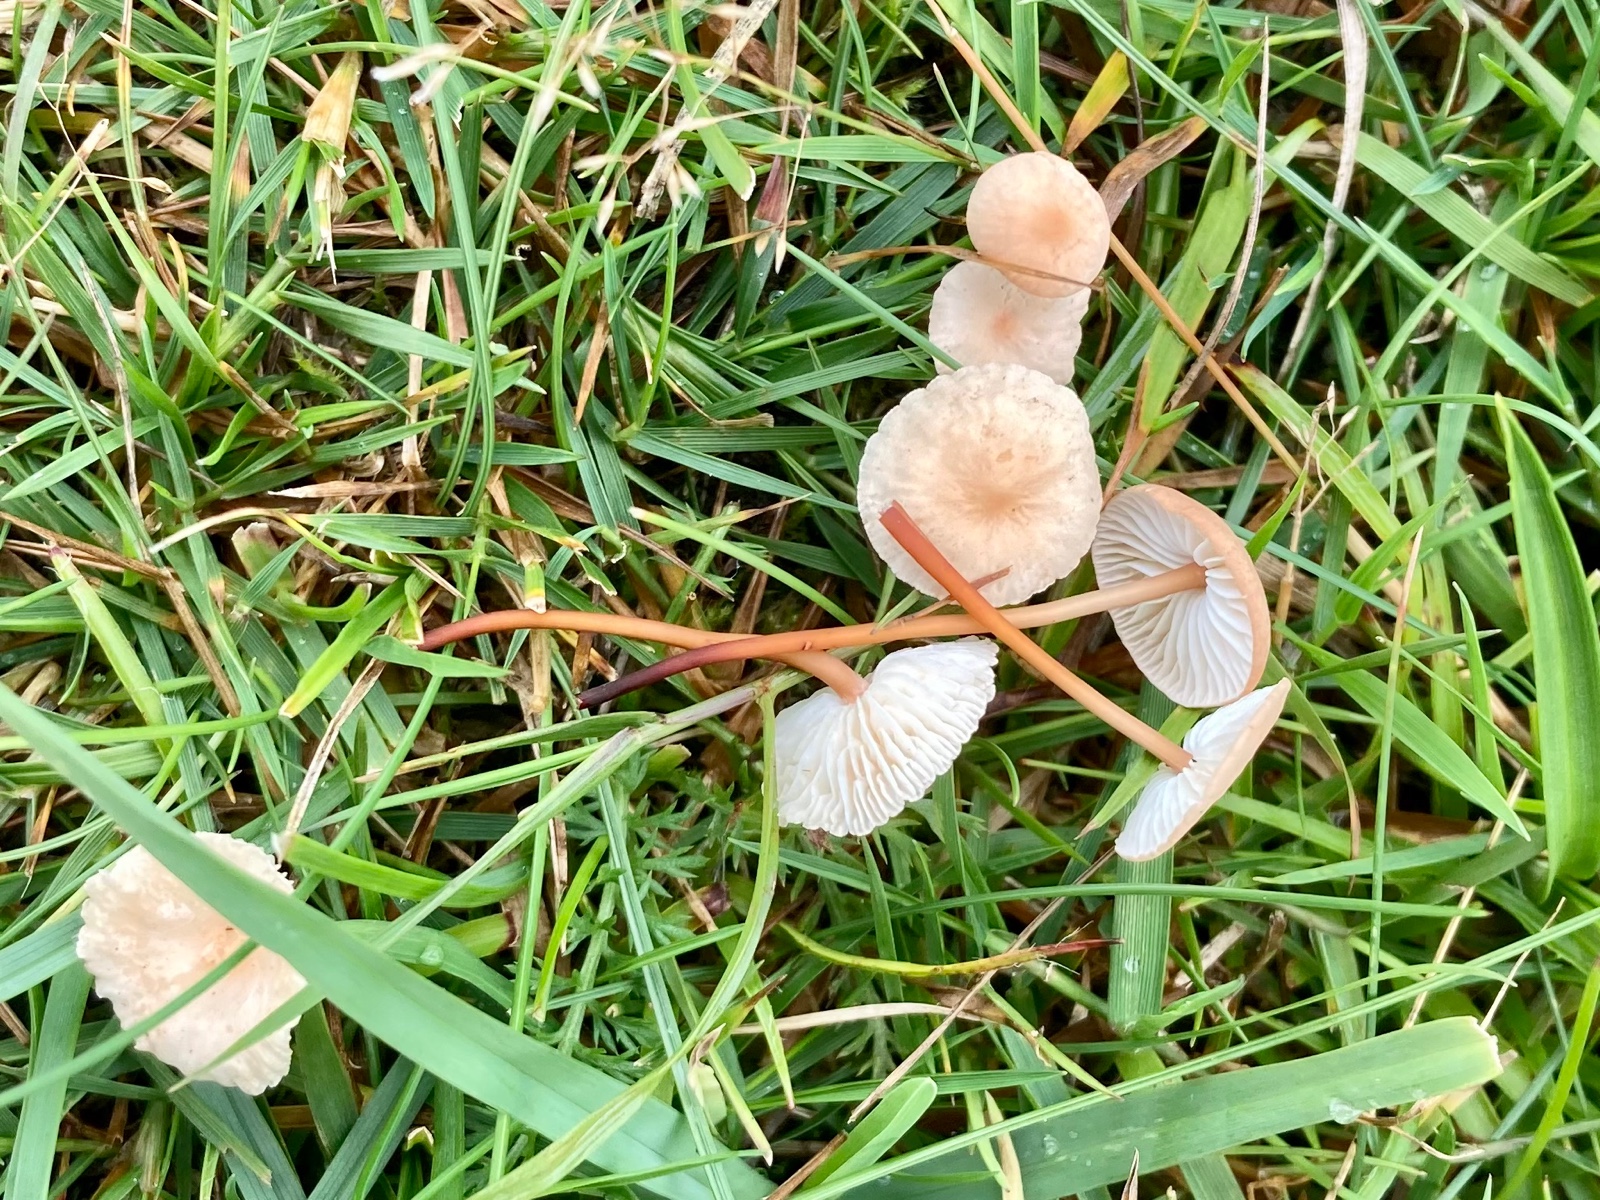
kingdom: Fungi
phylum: Basidiomycota
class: Agaricomycetes
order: Agaricales
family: Omphalotaceae
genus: Mycetinis
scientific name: Mycetinis scorodonius
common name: lille løghat
